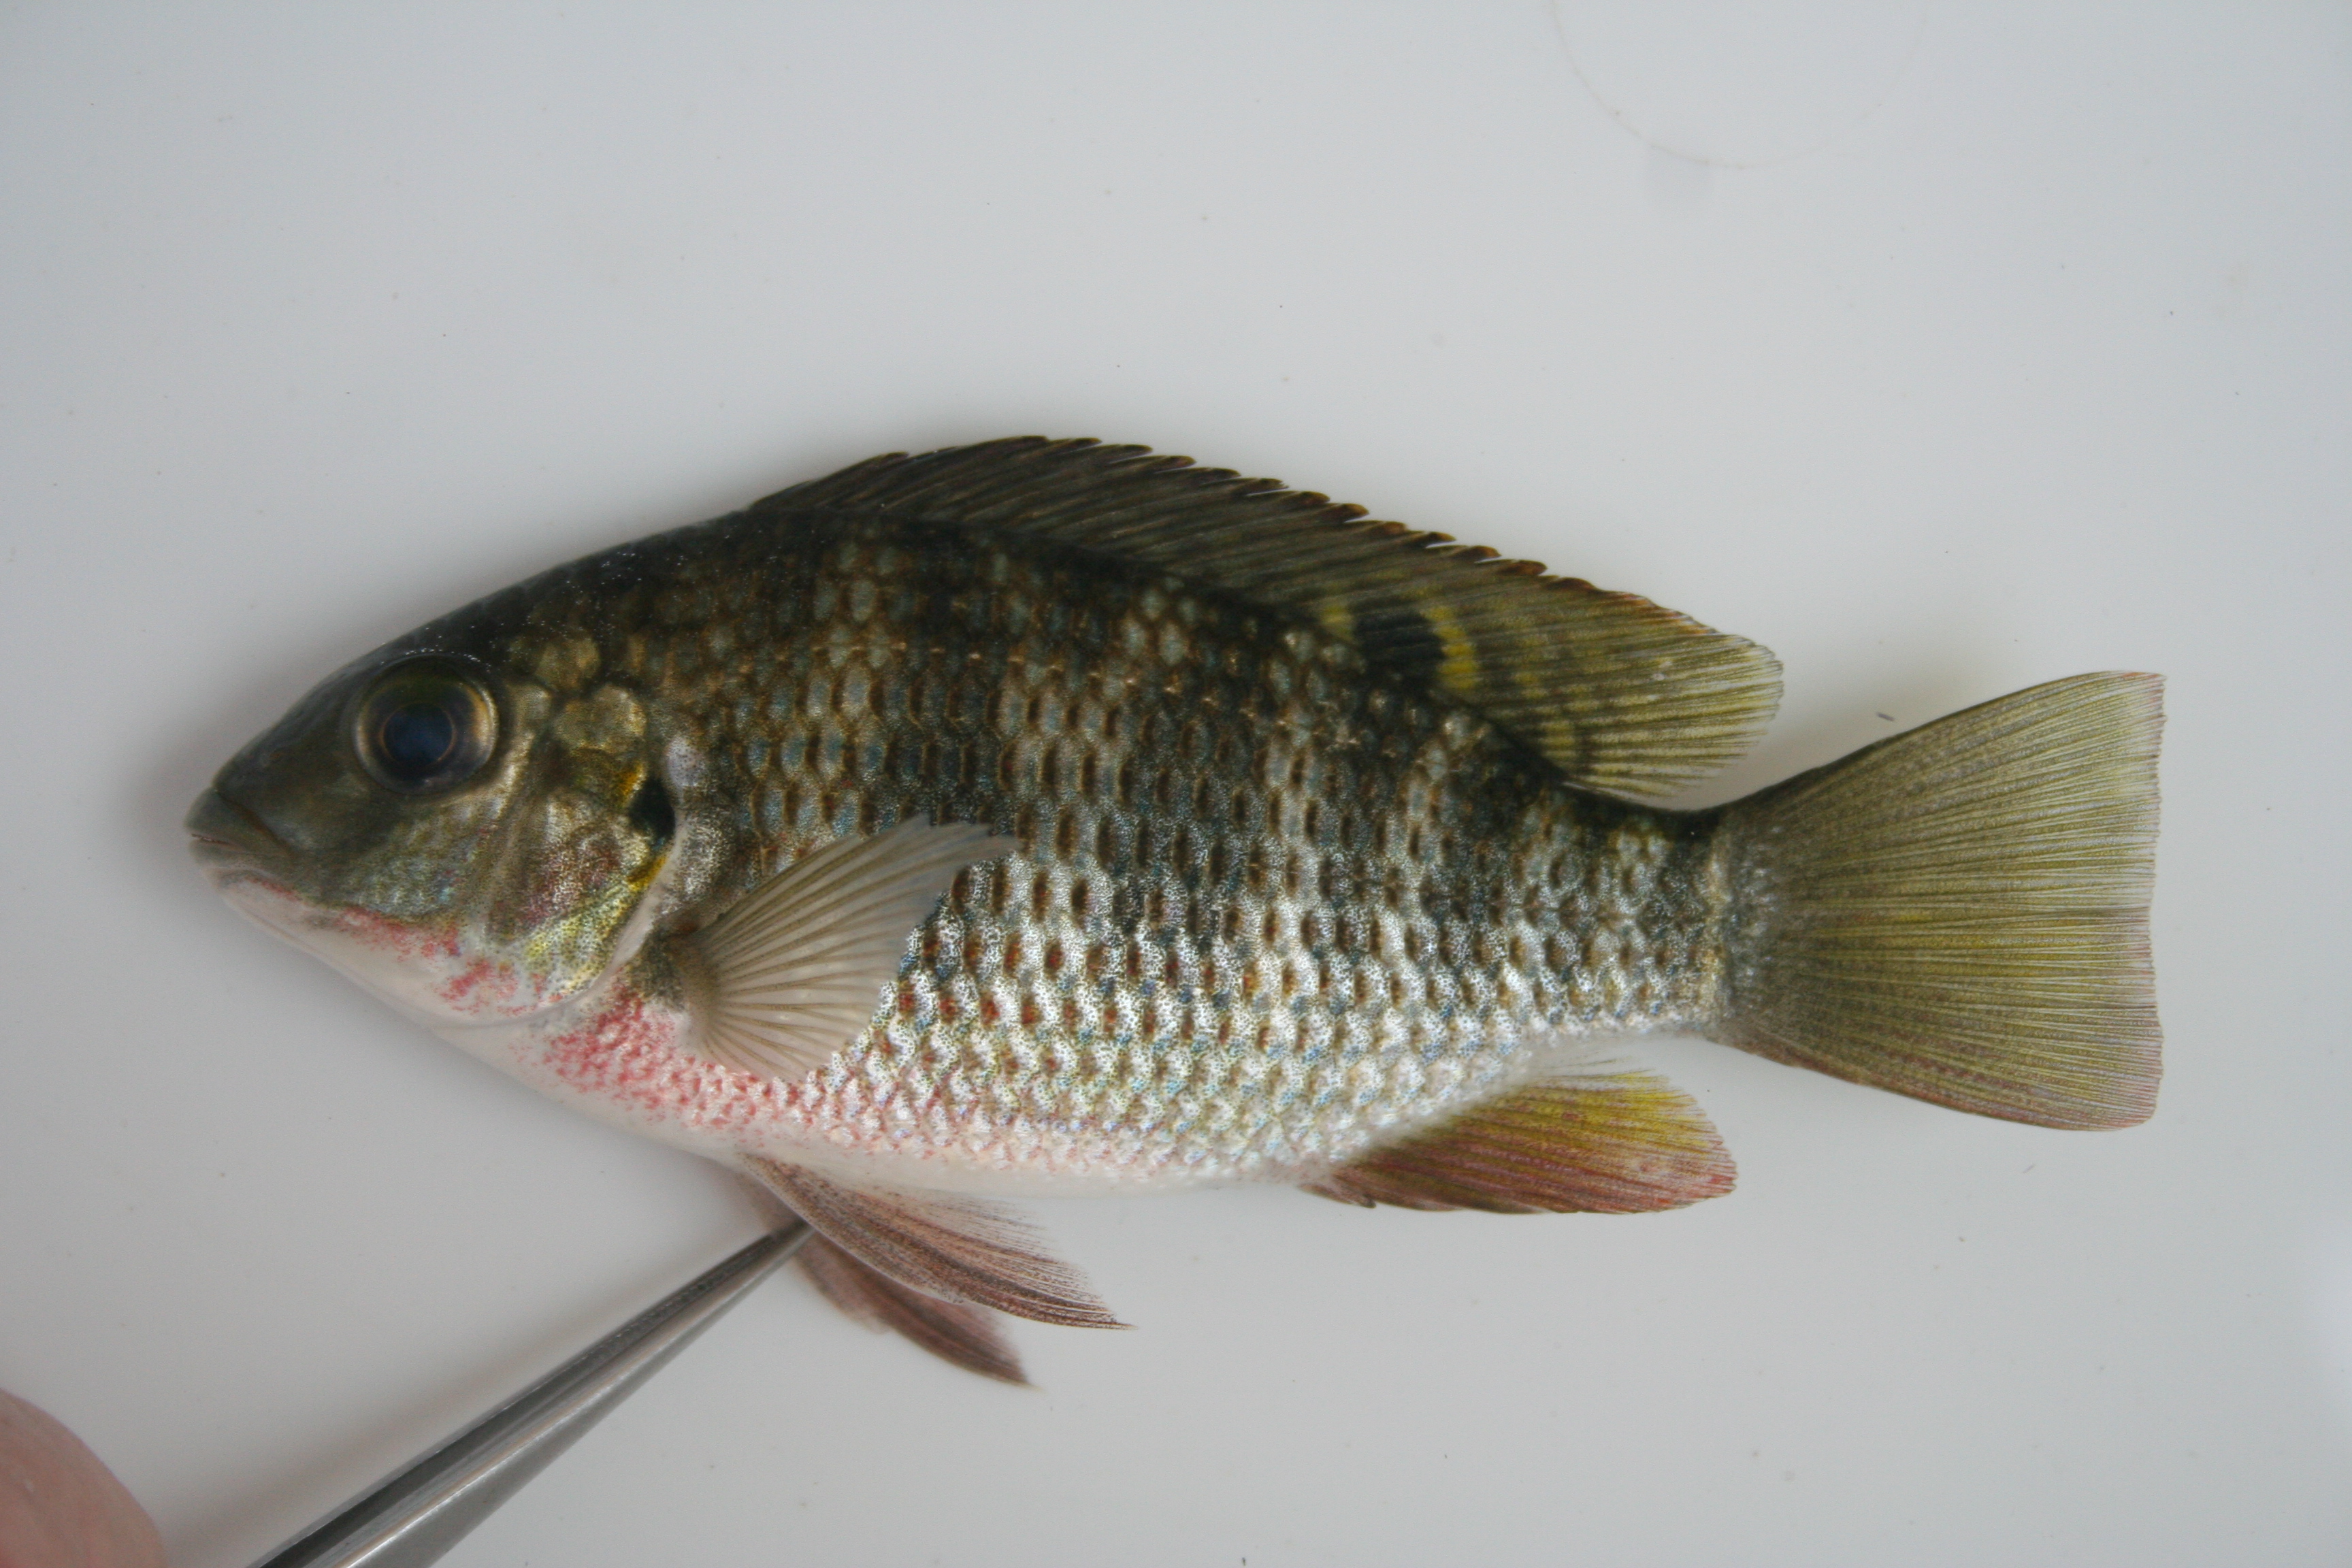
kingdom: Animalia
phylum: Chordata
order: Perciformes
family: Cichlidae
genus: Coptodon
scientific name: Coptodon rendalli
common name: Redbreast tilapia
